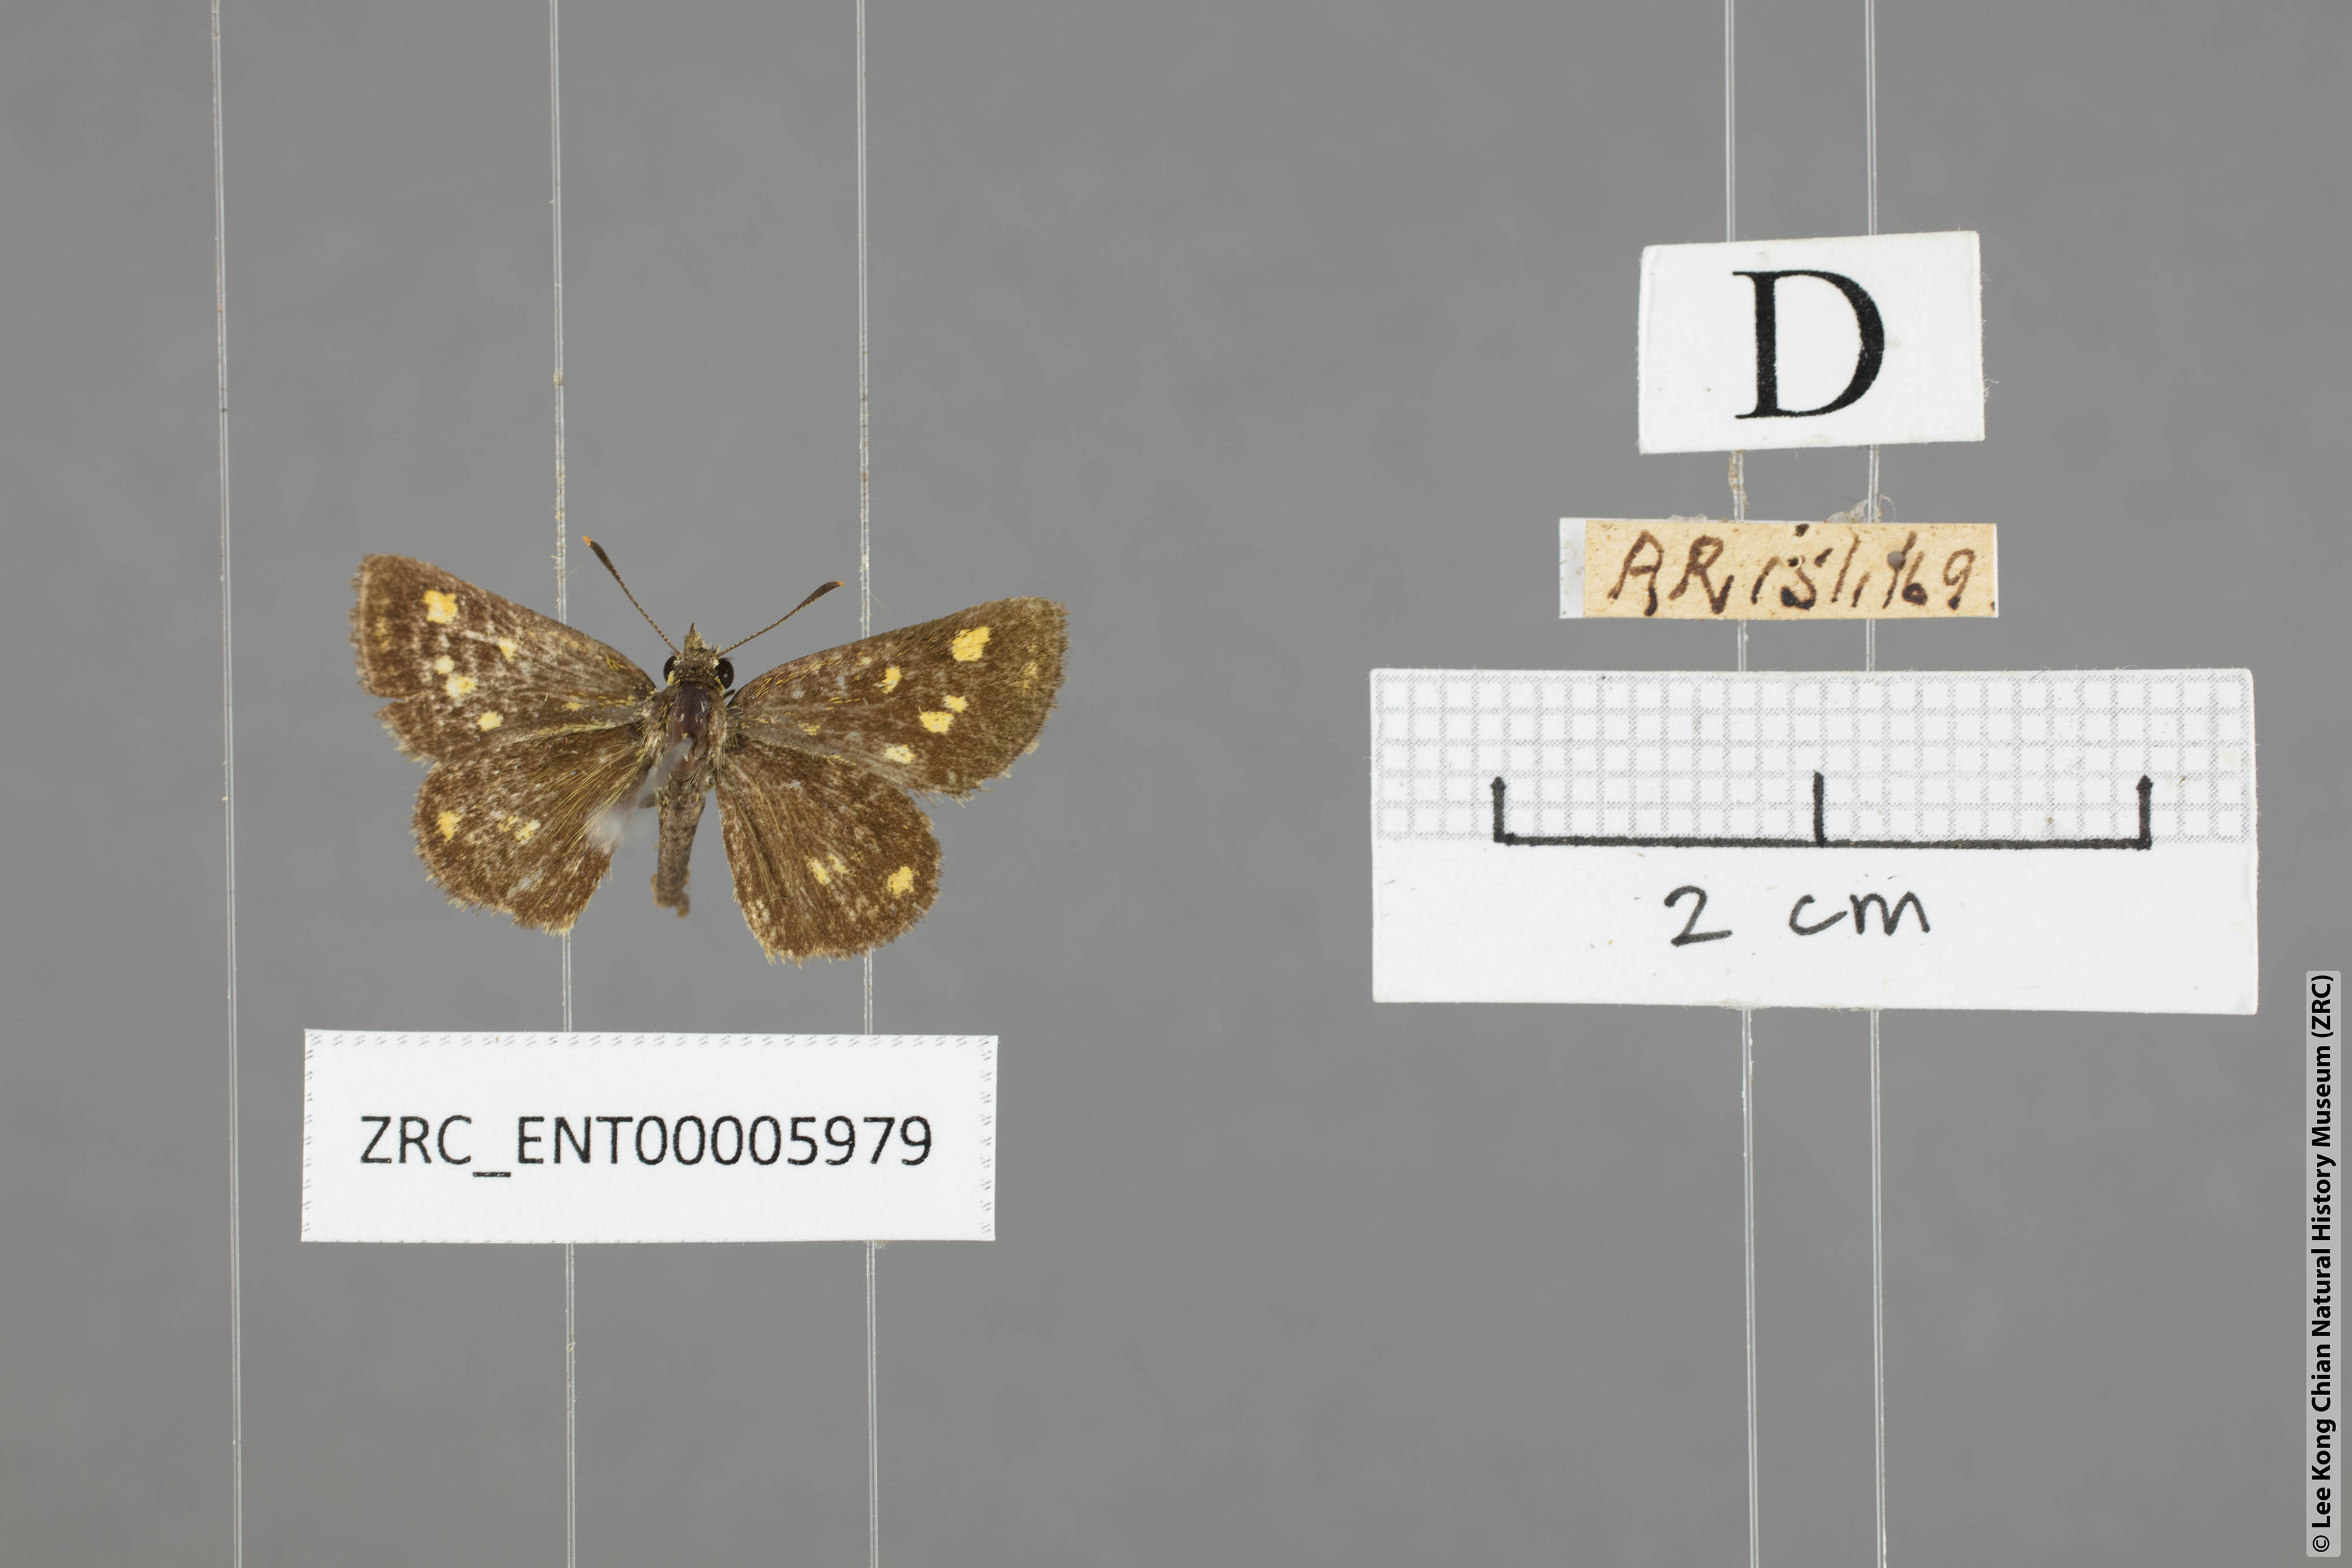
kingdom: Animalia
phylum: Arthropoda
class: Insecta
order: Lepidoptera
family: Hesperiidae
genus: Ampittia
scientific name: Ampittia dioscorides
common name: Common bush hopper
